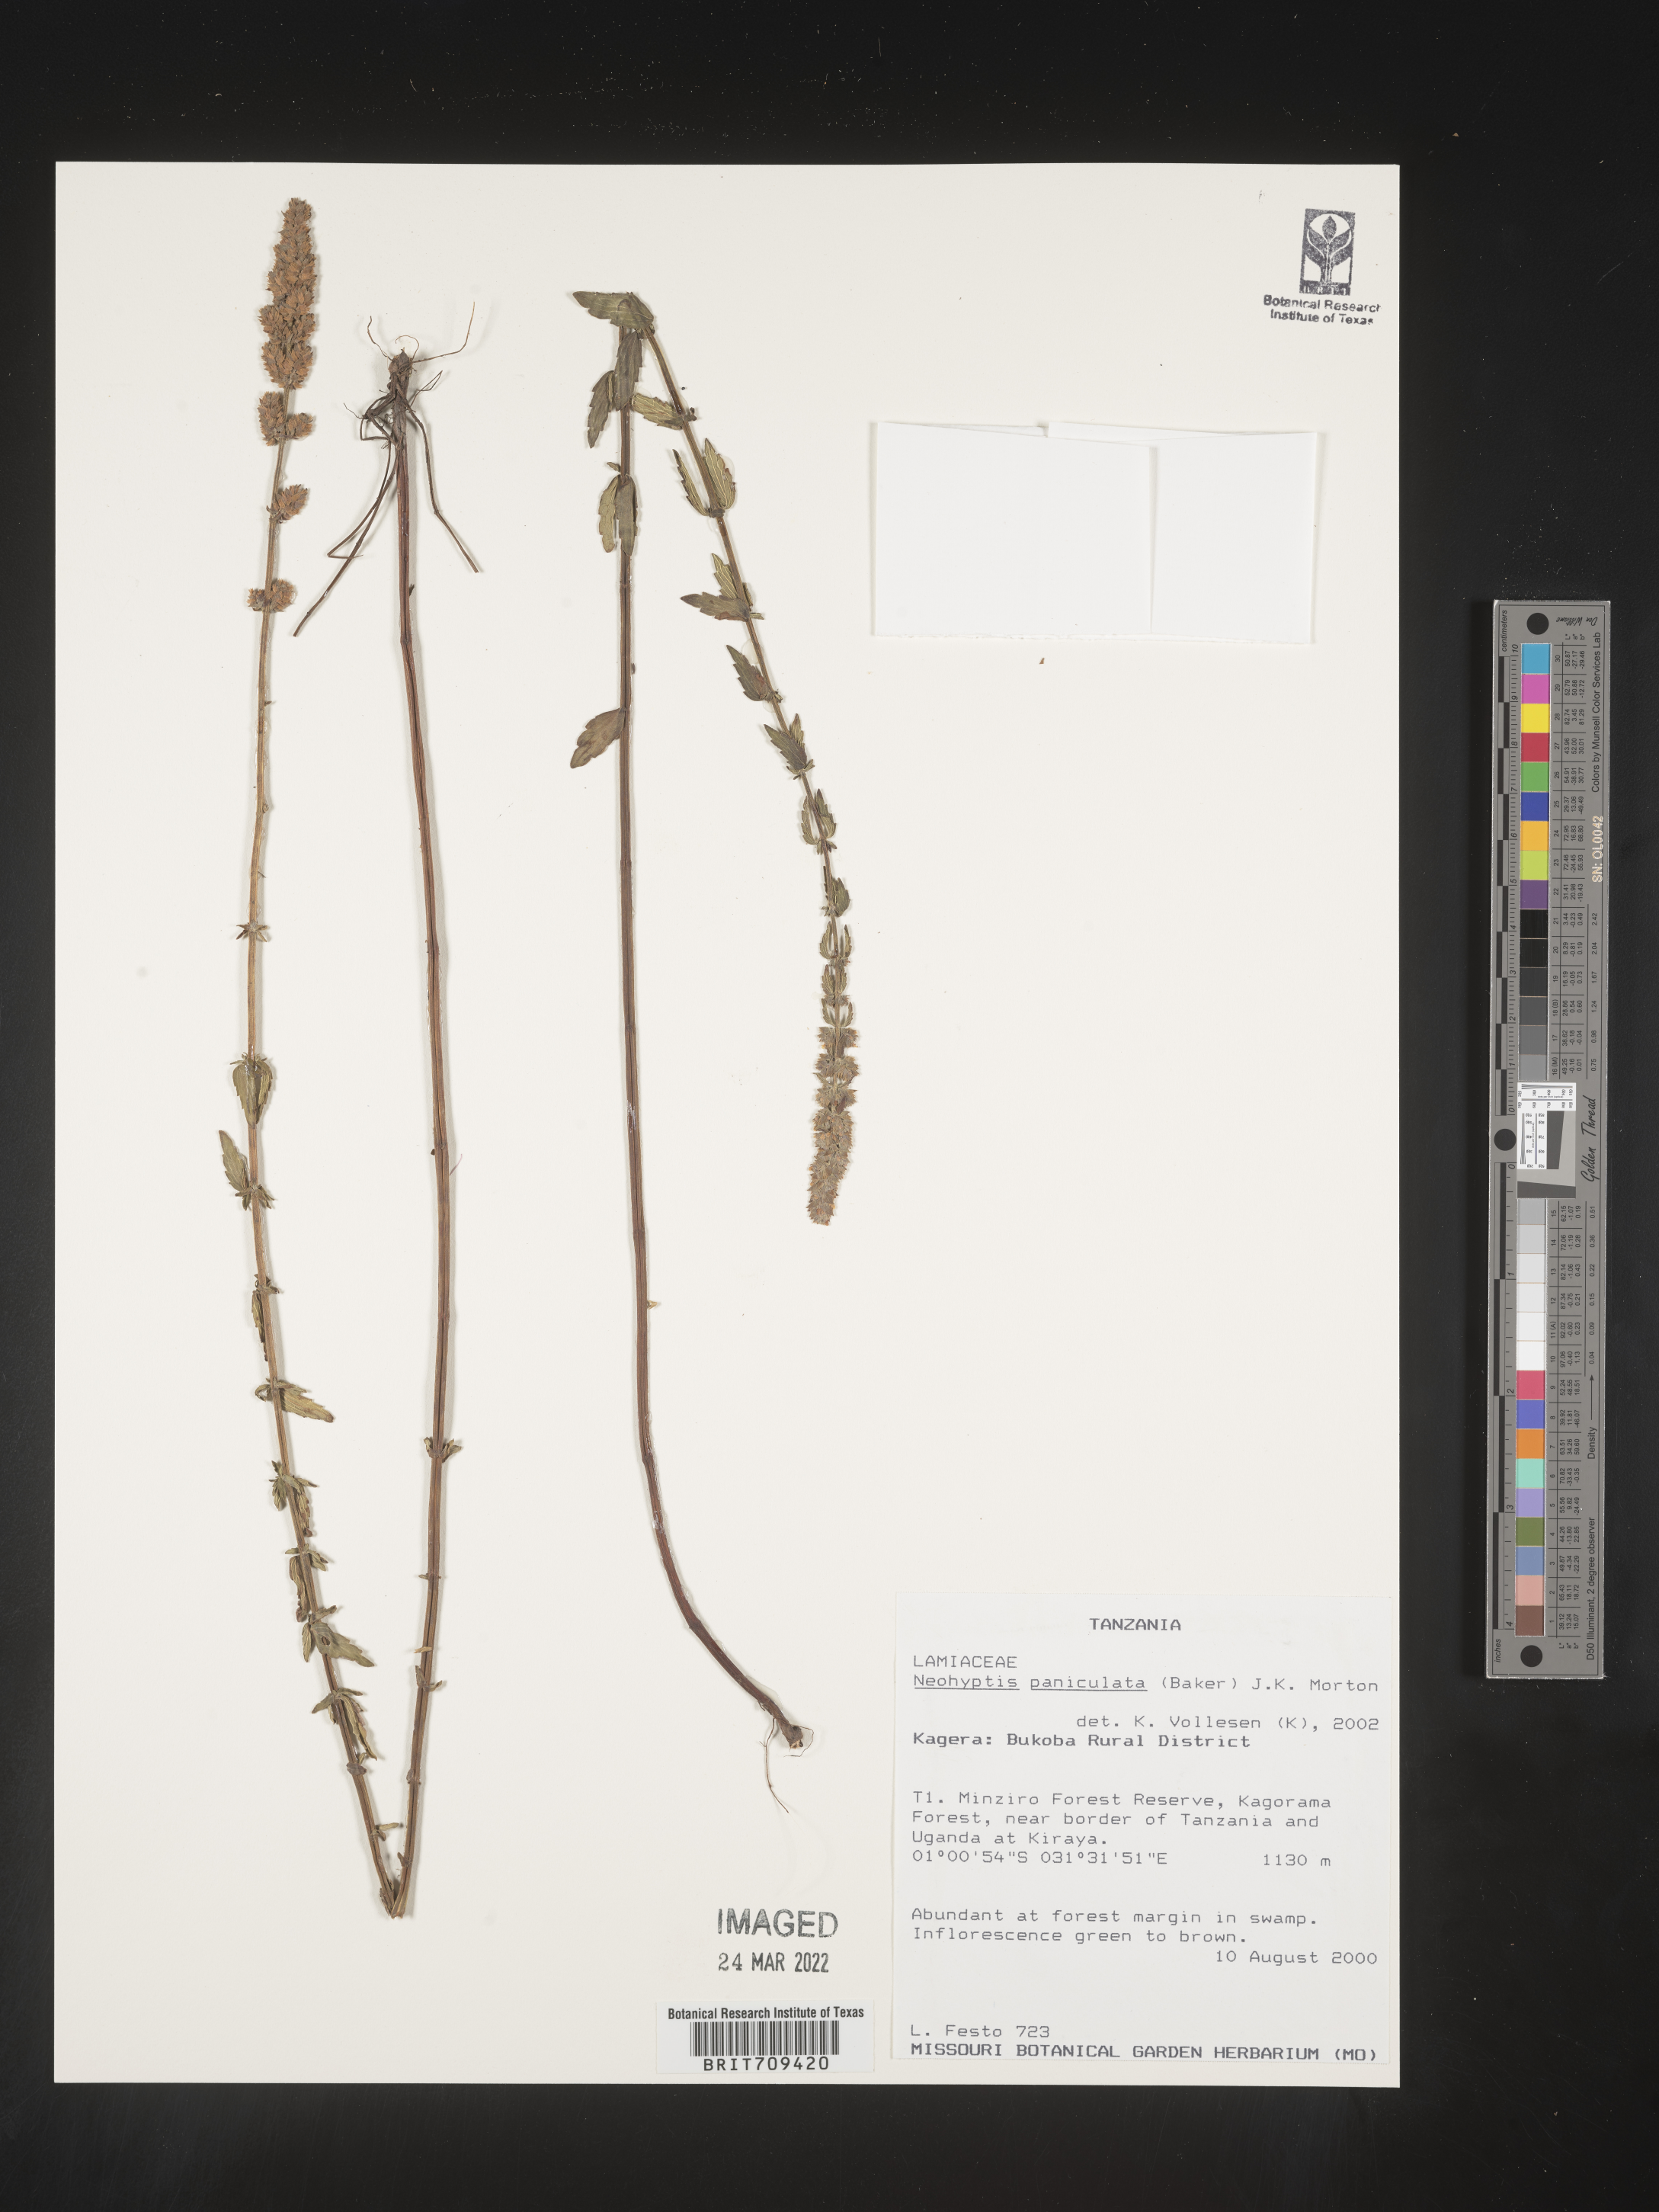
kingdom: Plantae
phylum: Tracheophyta
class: Magnoliopsida
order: Lamiales
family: Lamiaceae
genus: Coleus
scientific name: Coleus guerkei
